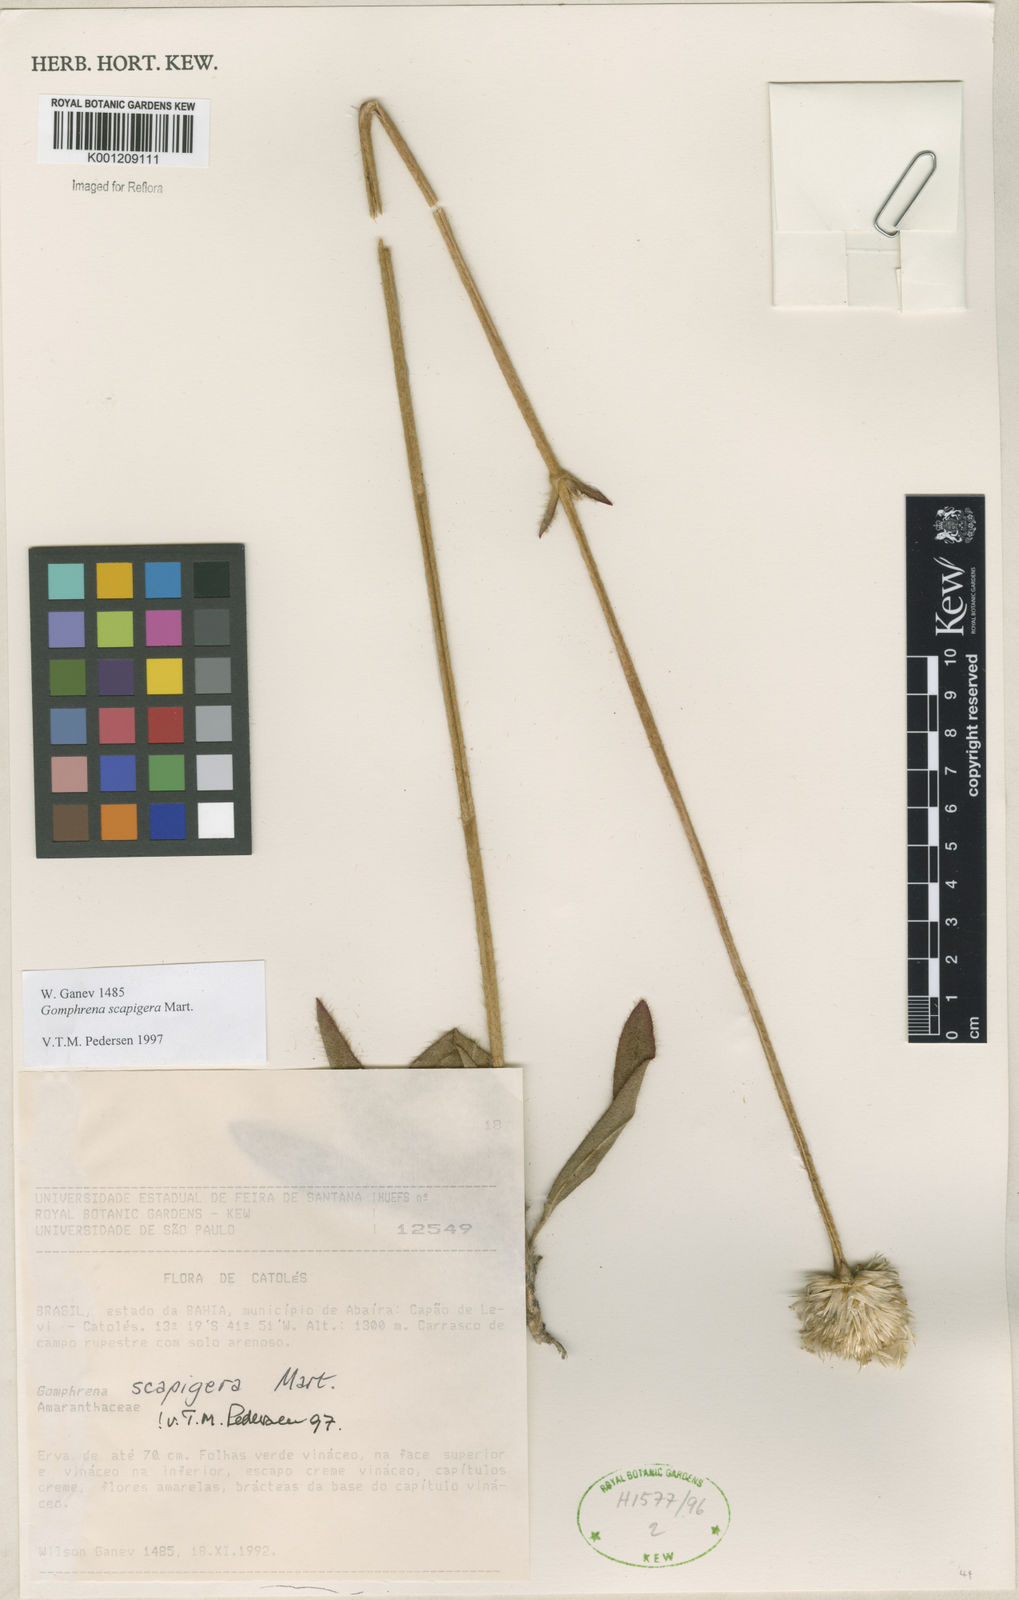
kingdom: Plantae
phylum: Tracheophyta
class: Magnoliopsida
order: Caryophyllales
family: Amaranthaceae
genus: Gomphrena
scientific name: Gomphrena scapigera
